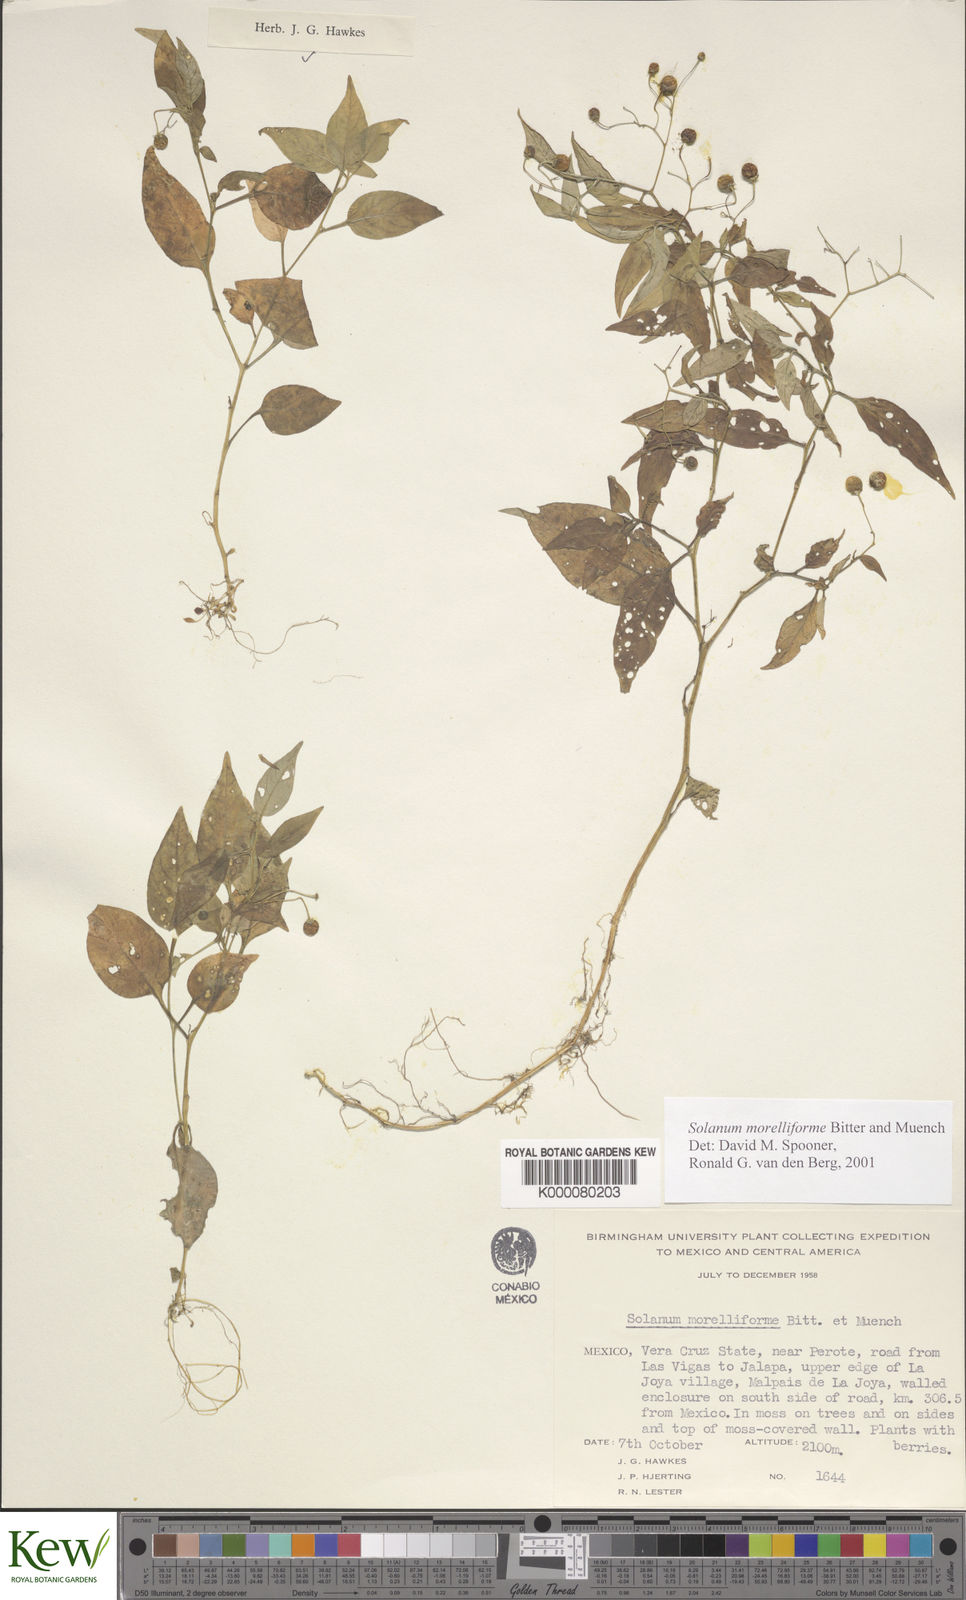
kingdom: Plantae
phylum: Tracheophyta
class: Magnoliopsida
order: Solanales
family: Solanaceae
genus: Solanum
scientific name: Solanum morelliforme
